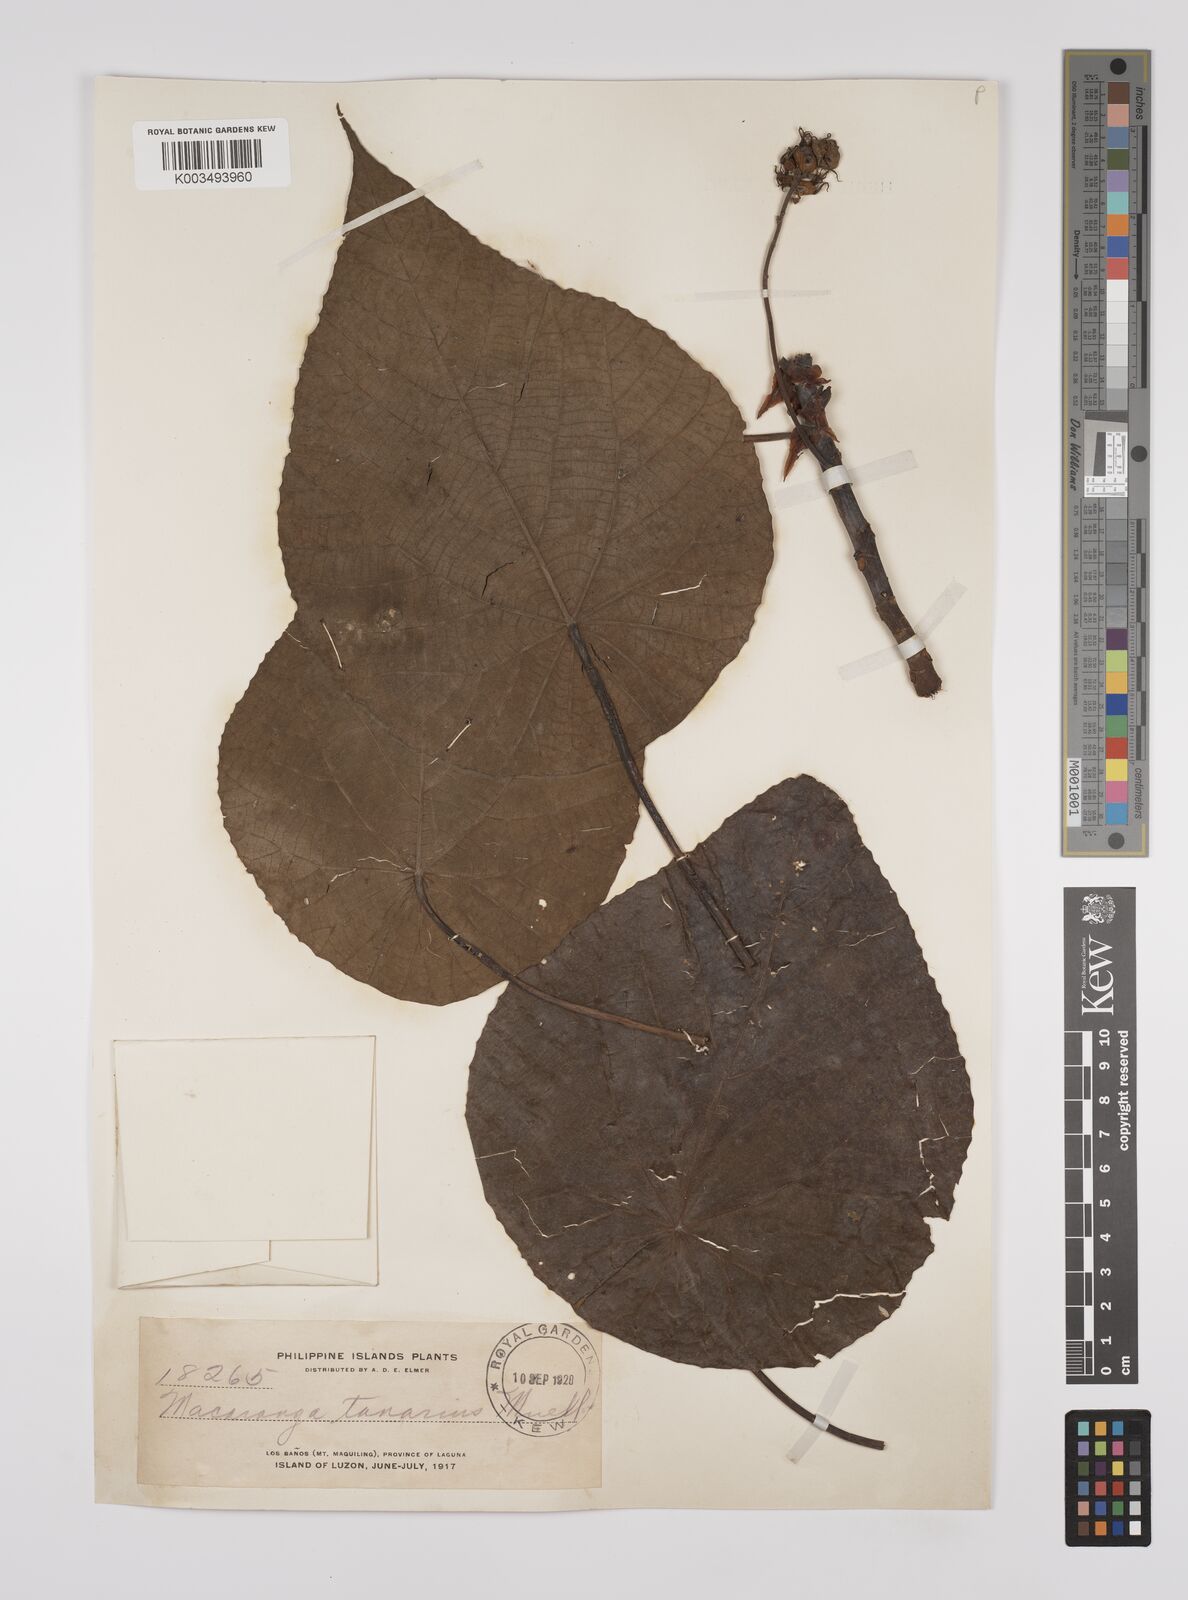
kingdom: Plantae
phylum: Tracheophyta
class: Magnoliopsida
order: Malpighiales
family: Euphorbiaceae
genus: Macaranga
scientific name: Macaranga tanarius
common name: Parasol leaf tree
